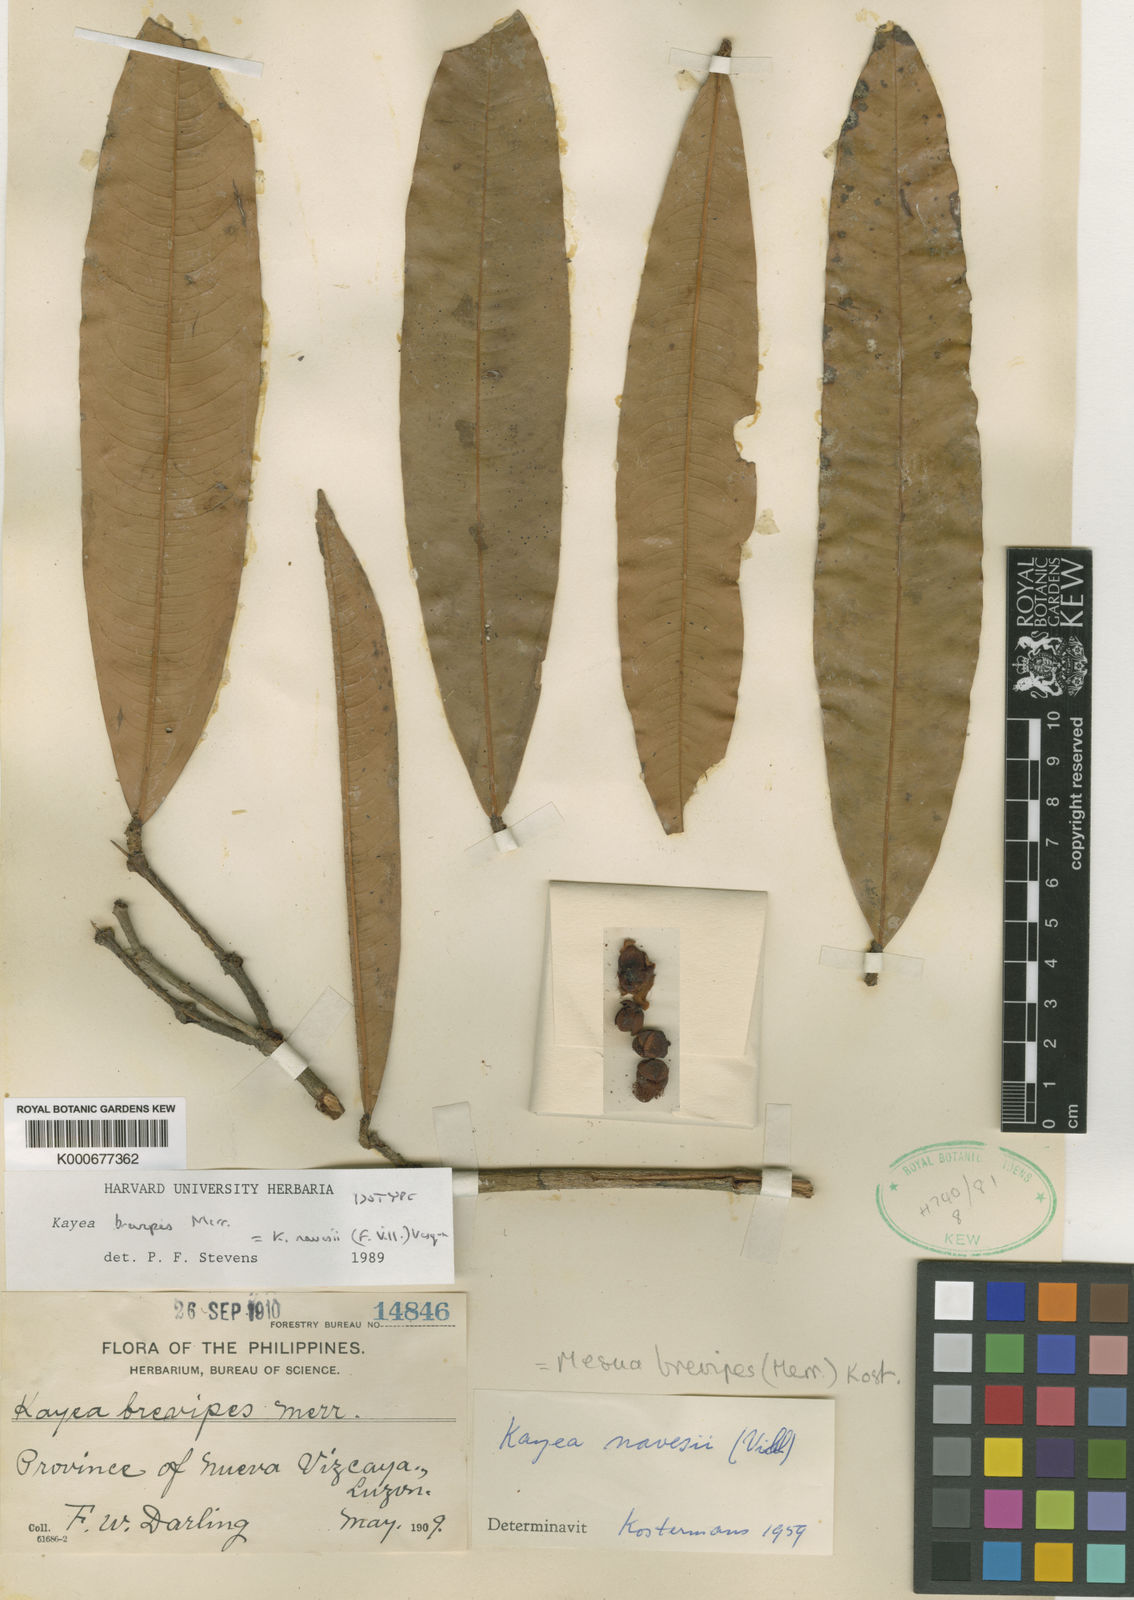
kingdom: Plantae
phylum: Tracheophyta
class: Magnoliopsida
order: Malpighiales
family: Calophyllaceae
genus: Kayea
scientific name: Kayea navesii
